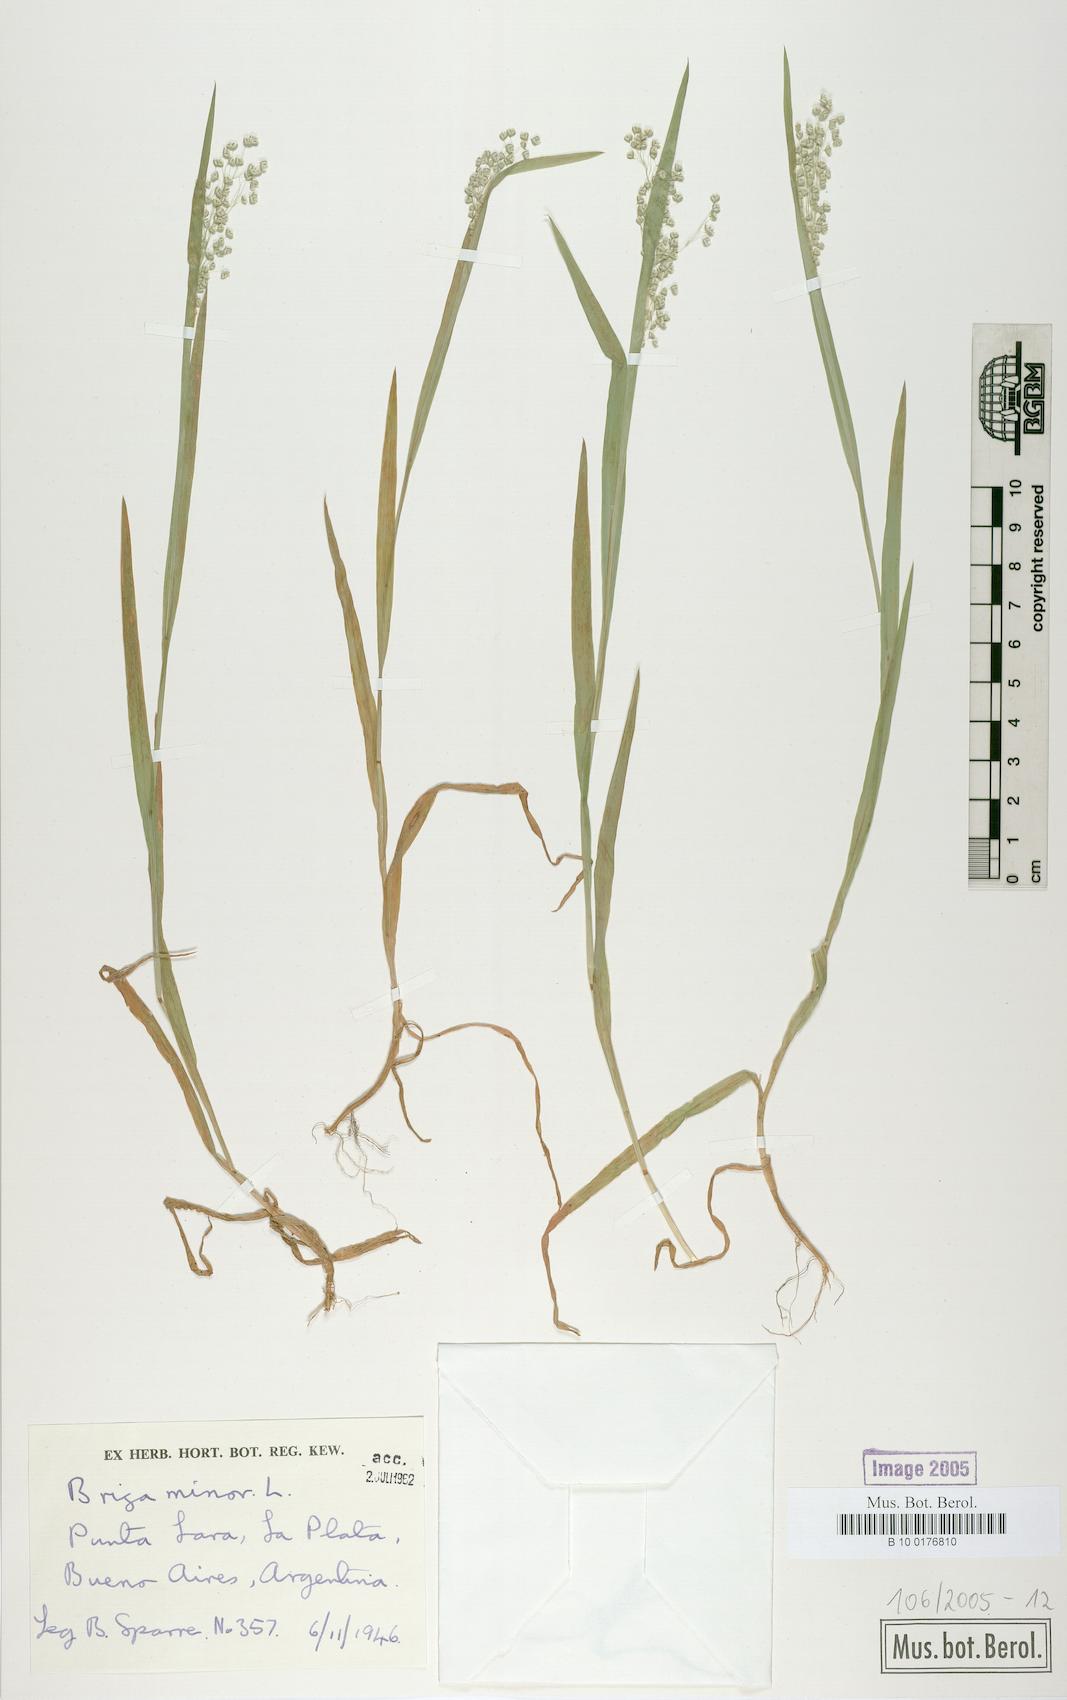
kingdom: Plantae
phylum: Tracheophyta
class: Liliopsida
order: Poales
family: Poaceae
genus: Briza
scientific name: Briza minor
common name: Lesser quaking-grass
